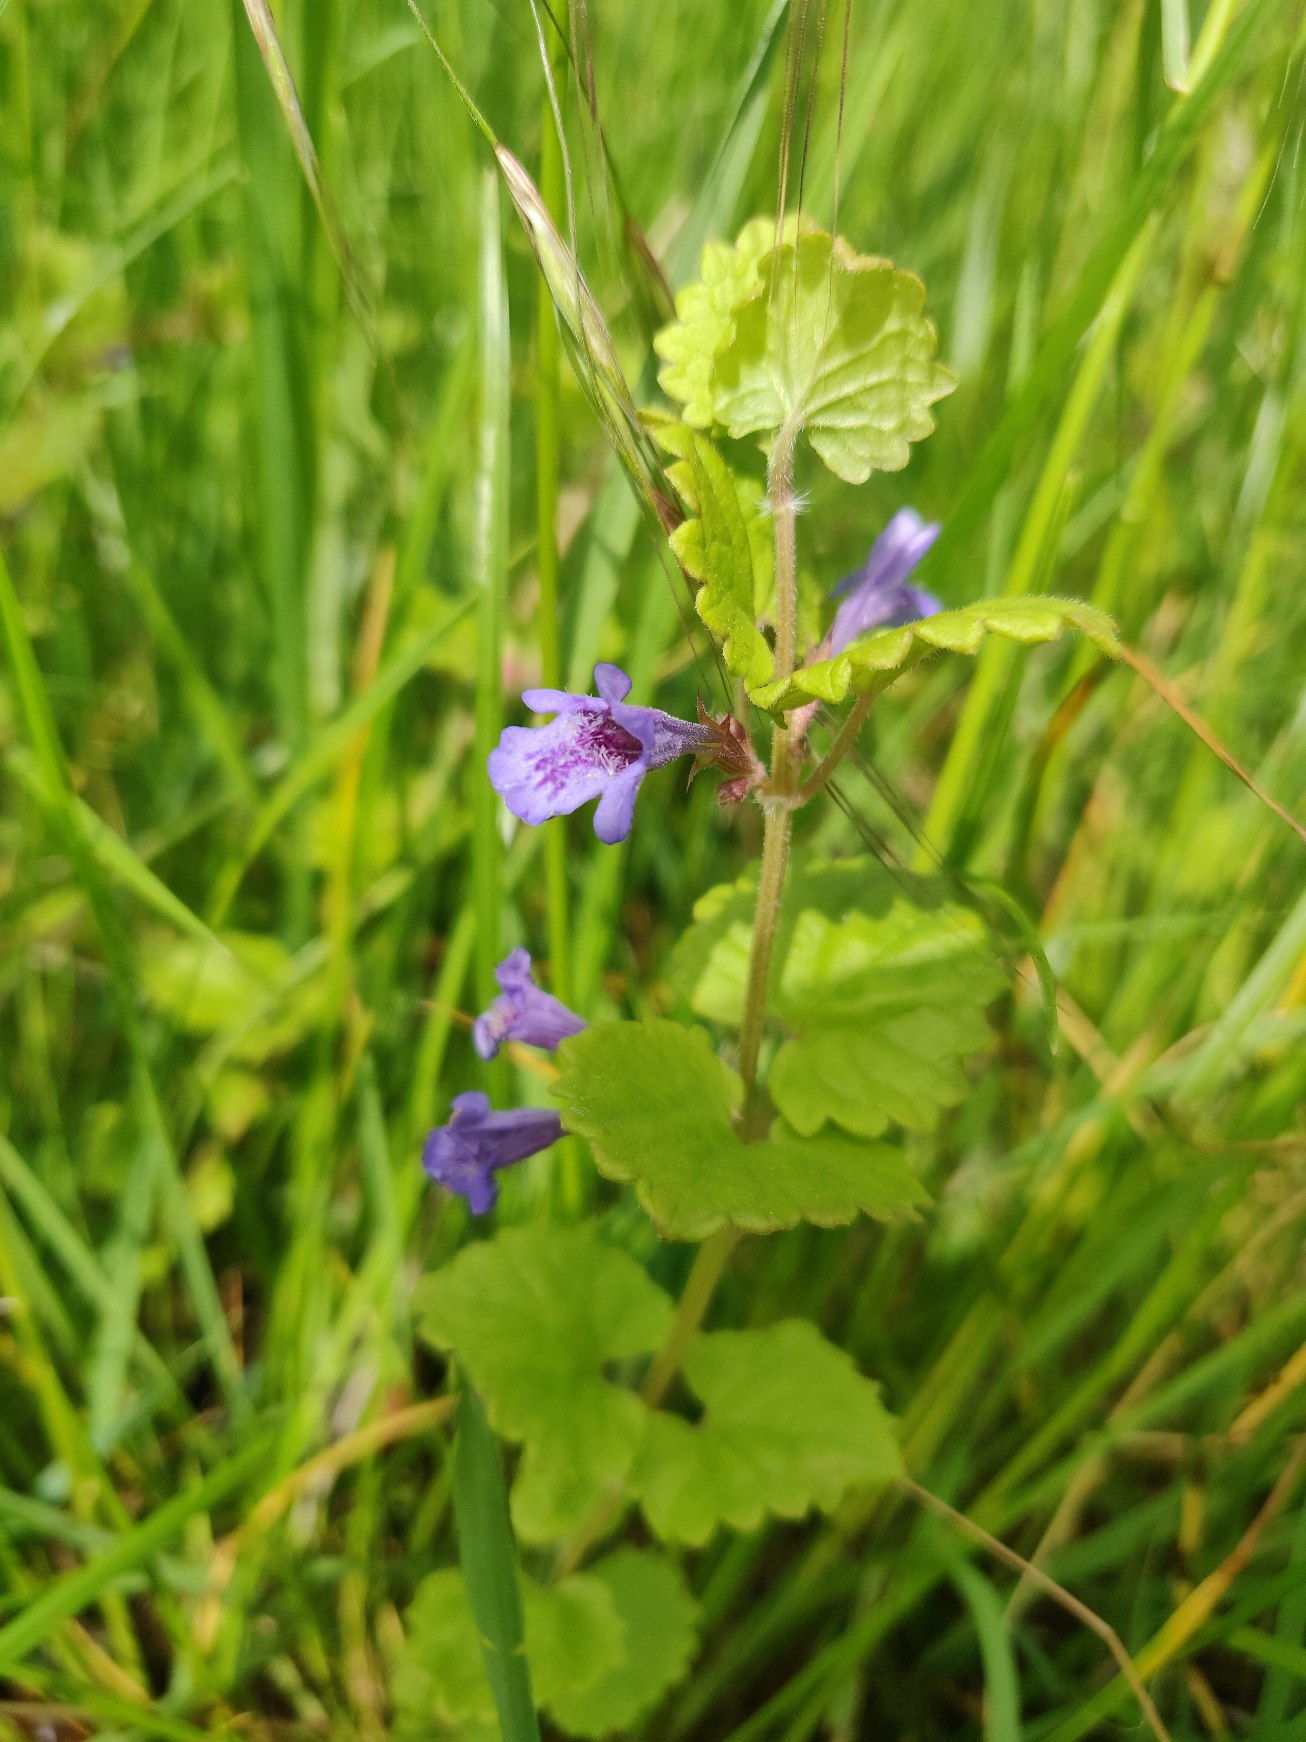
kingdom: Plantae
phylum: Tracheophyta
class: Magnoliopsida
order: Lamiales
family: Lamiaceae
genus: Glechoma
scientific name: Glechoma hederacea
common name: Korsknap
